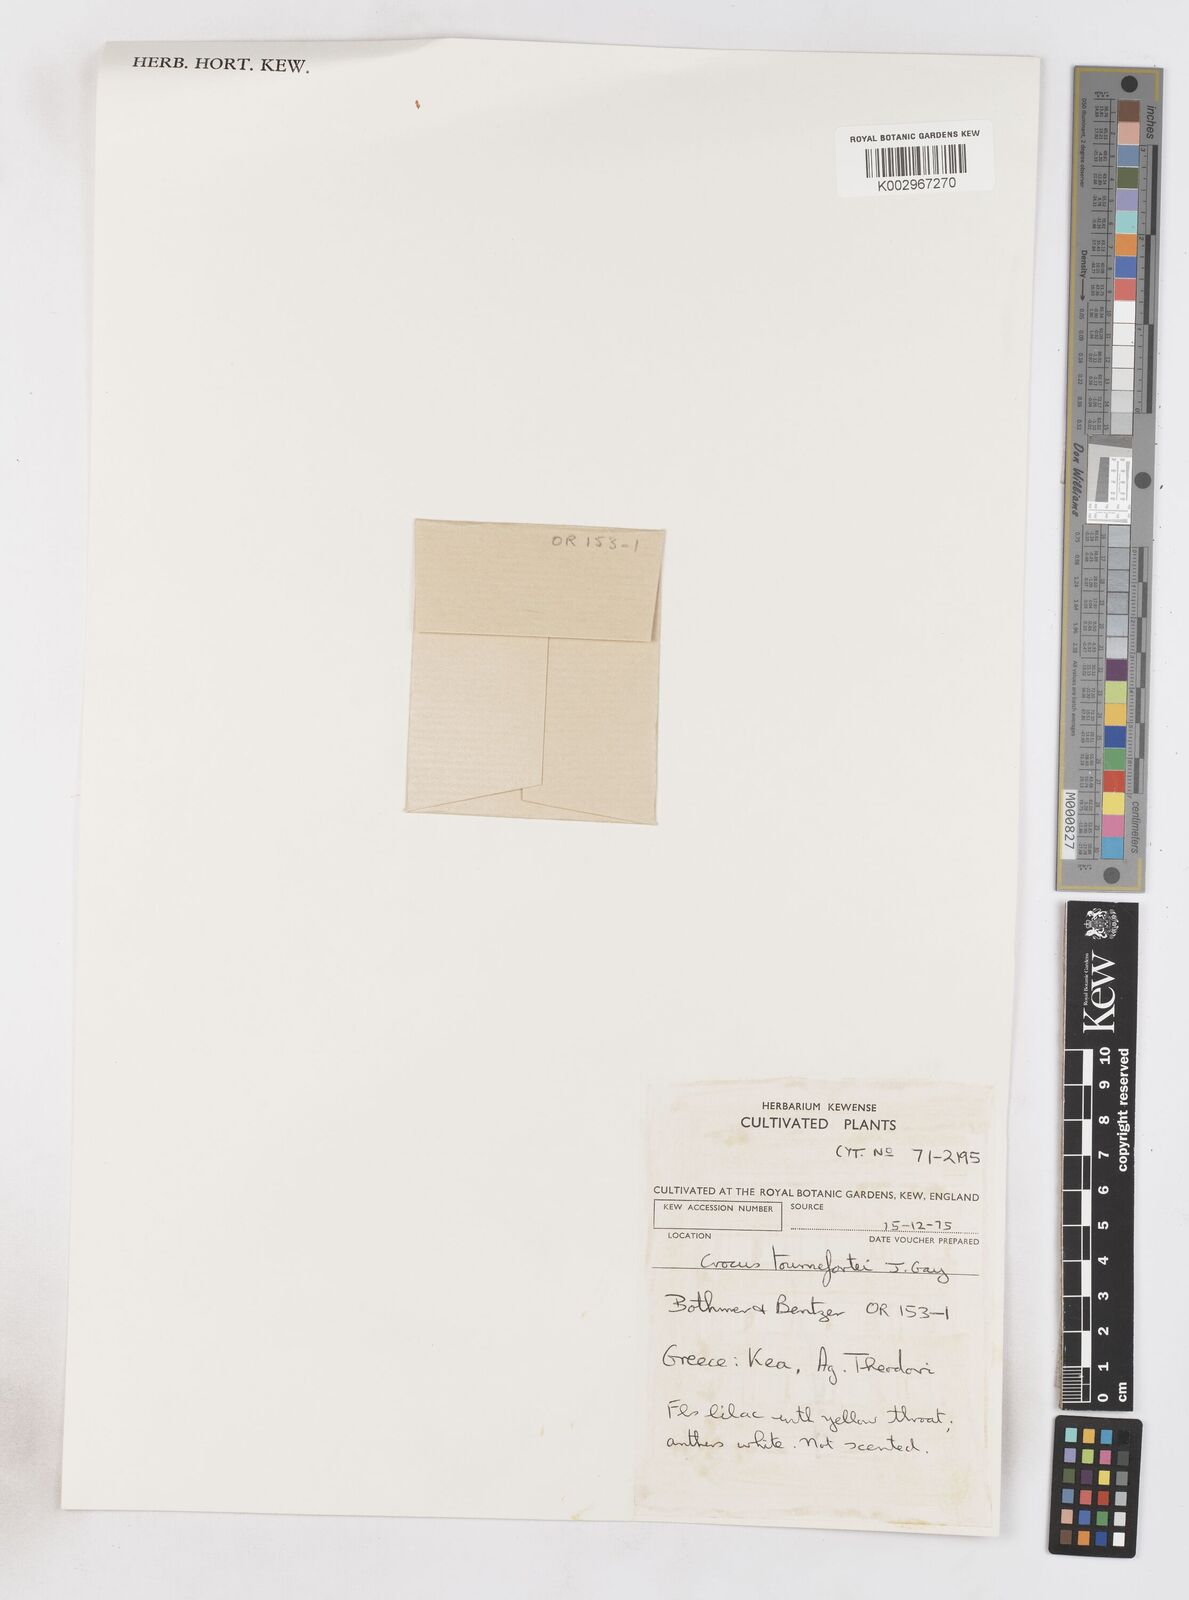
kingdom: Plantae
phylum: Tracheophyta
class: Liliopsida
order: Asparagales
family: Iridaceae
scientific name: Iridaceae
